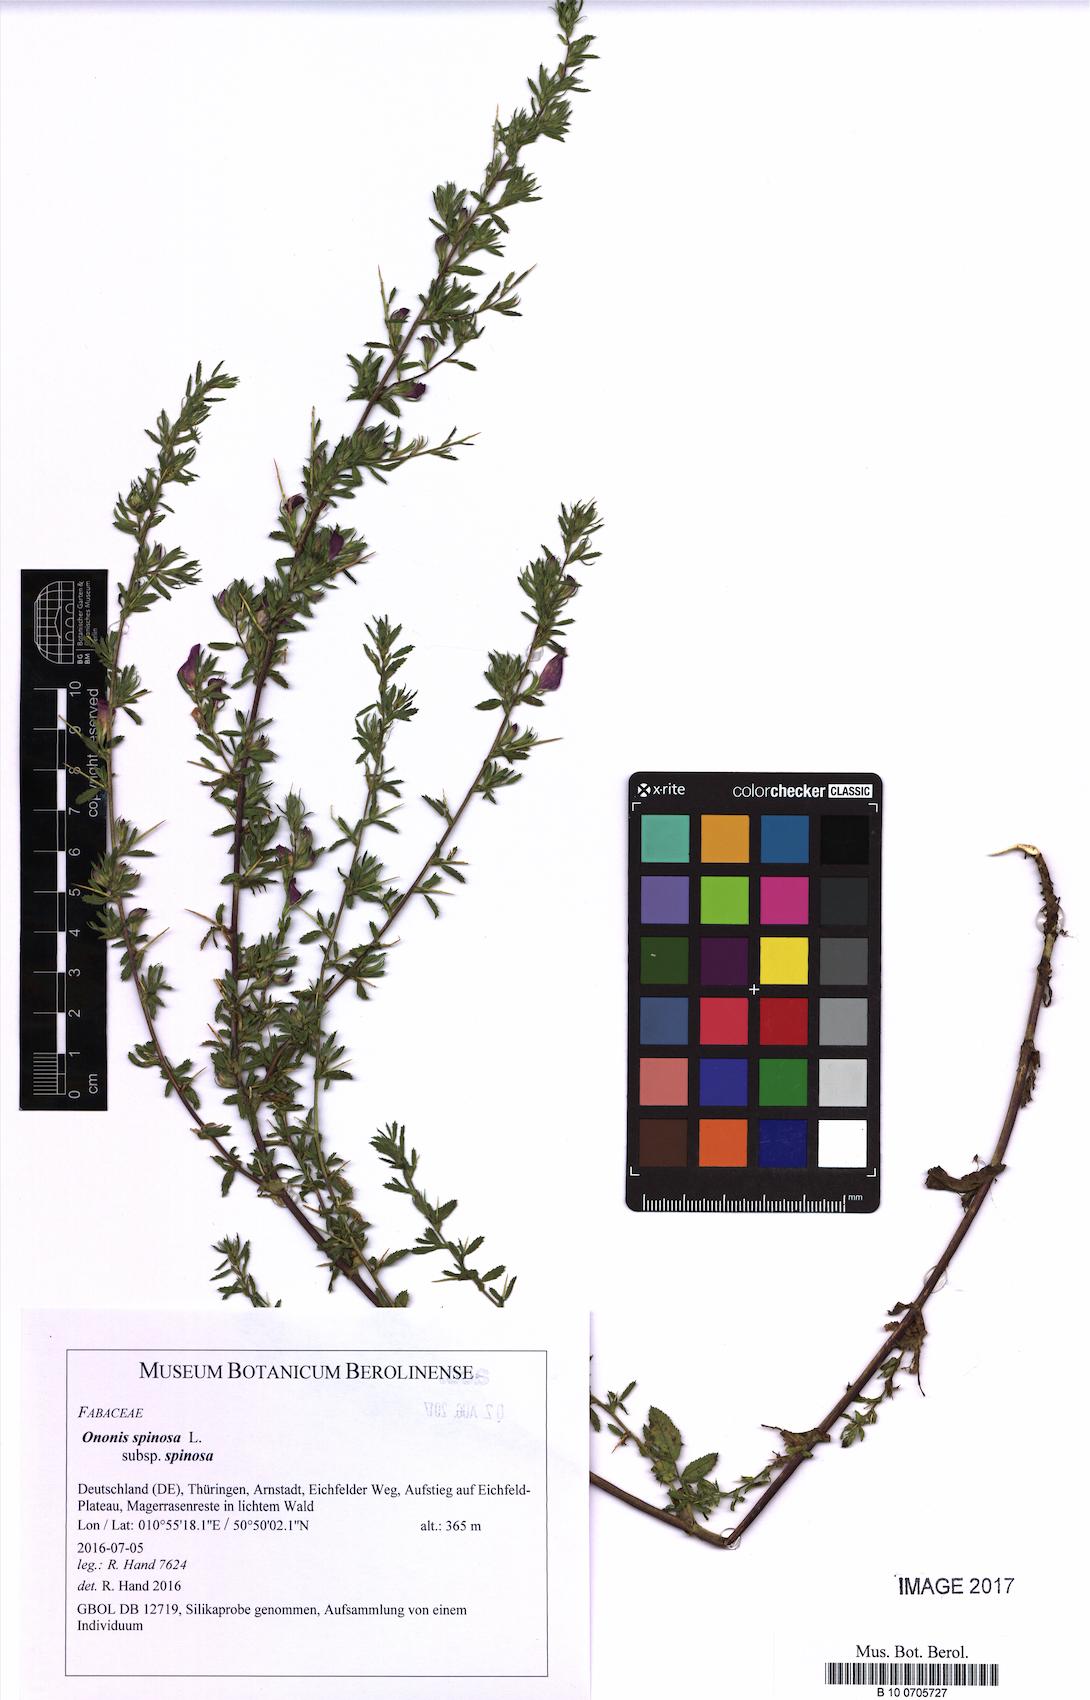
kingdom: Plantae
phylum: Tracheophyta
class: Magnoliopsida
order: Fabales
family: Fabaceae
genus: Ononis
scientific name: Ononis spinosa
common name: Spiny restharrow
